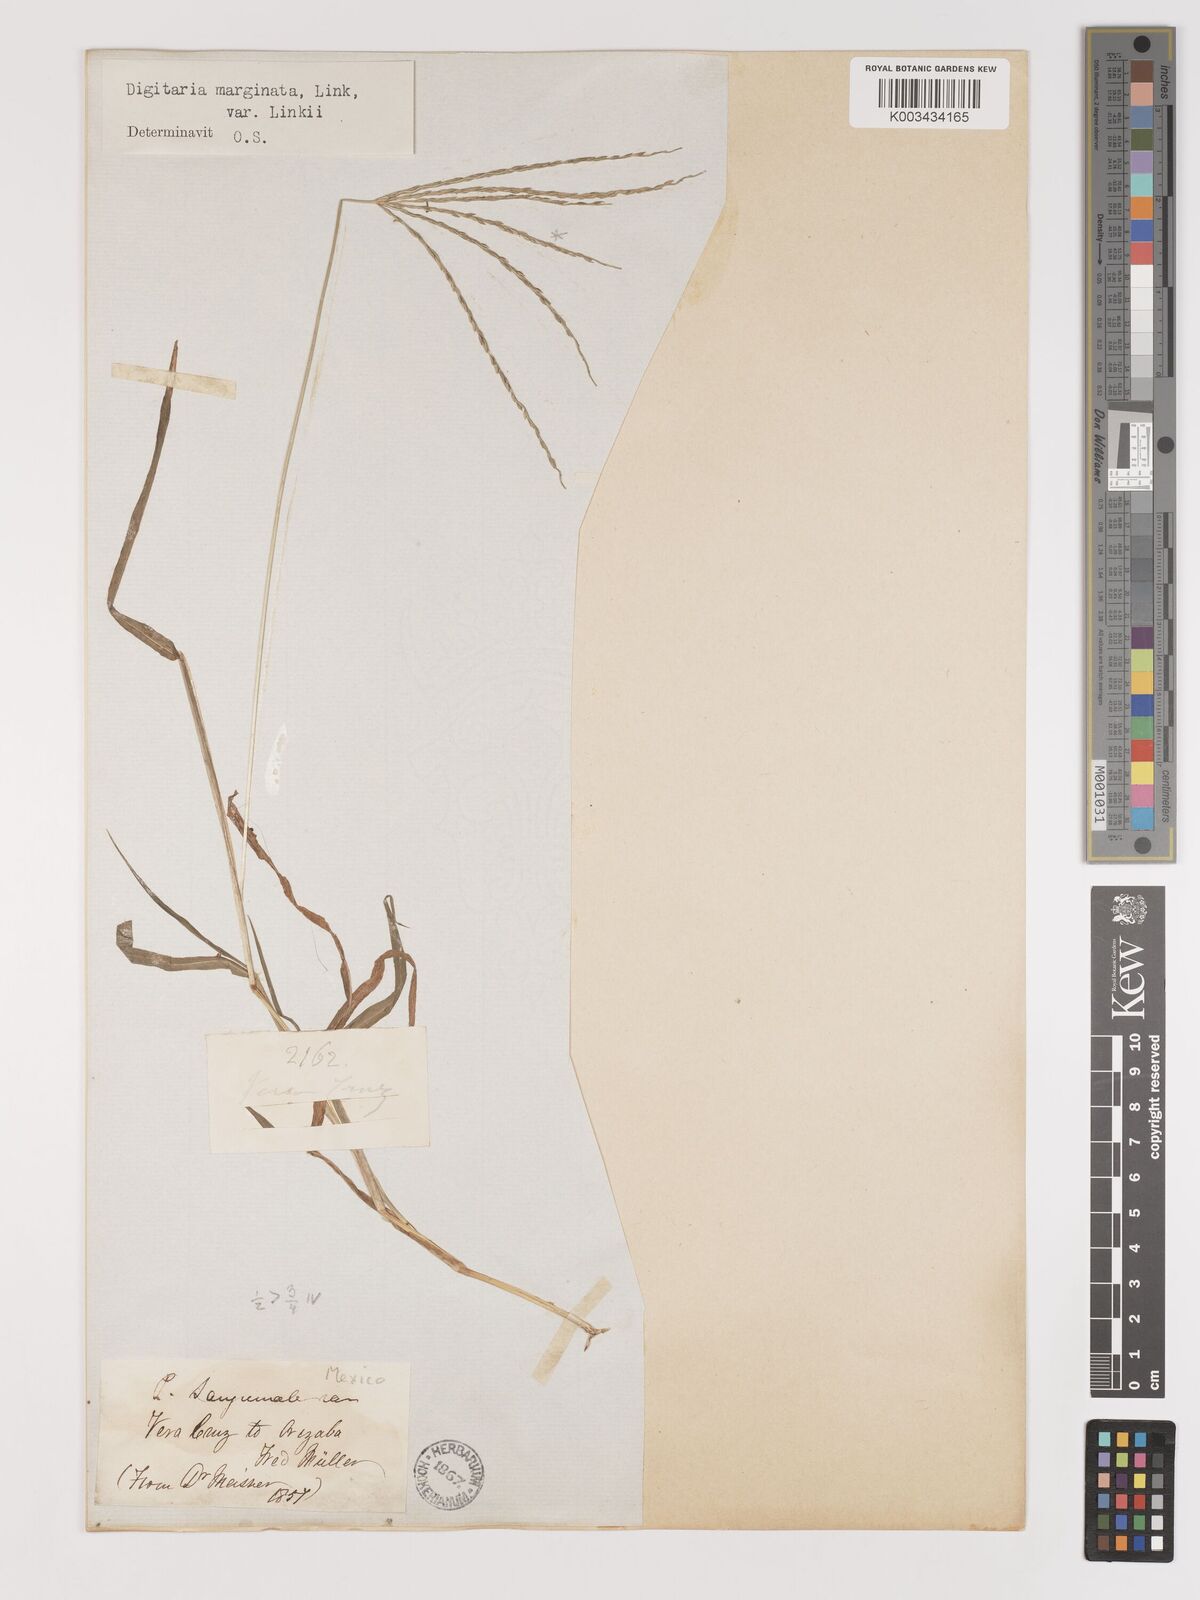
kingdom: Plantae
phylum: Tracheophyta
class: Liliopsida
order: Poales
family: Poaceae
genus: Digitaria
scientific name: Digitaria ciliaris
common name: Tropical finger-grass
